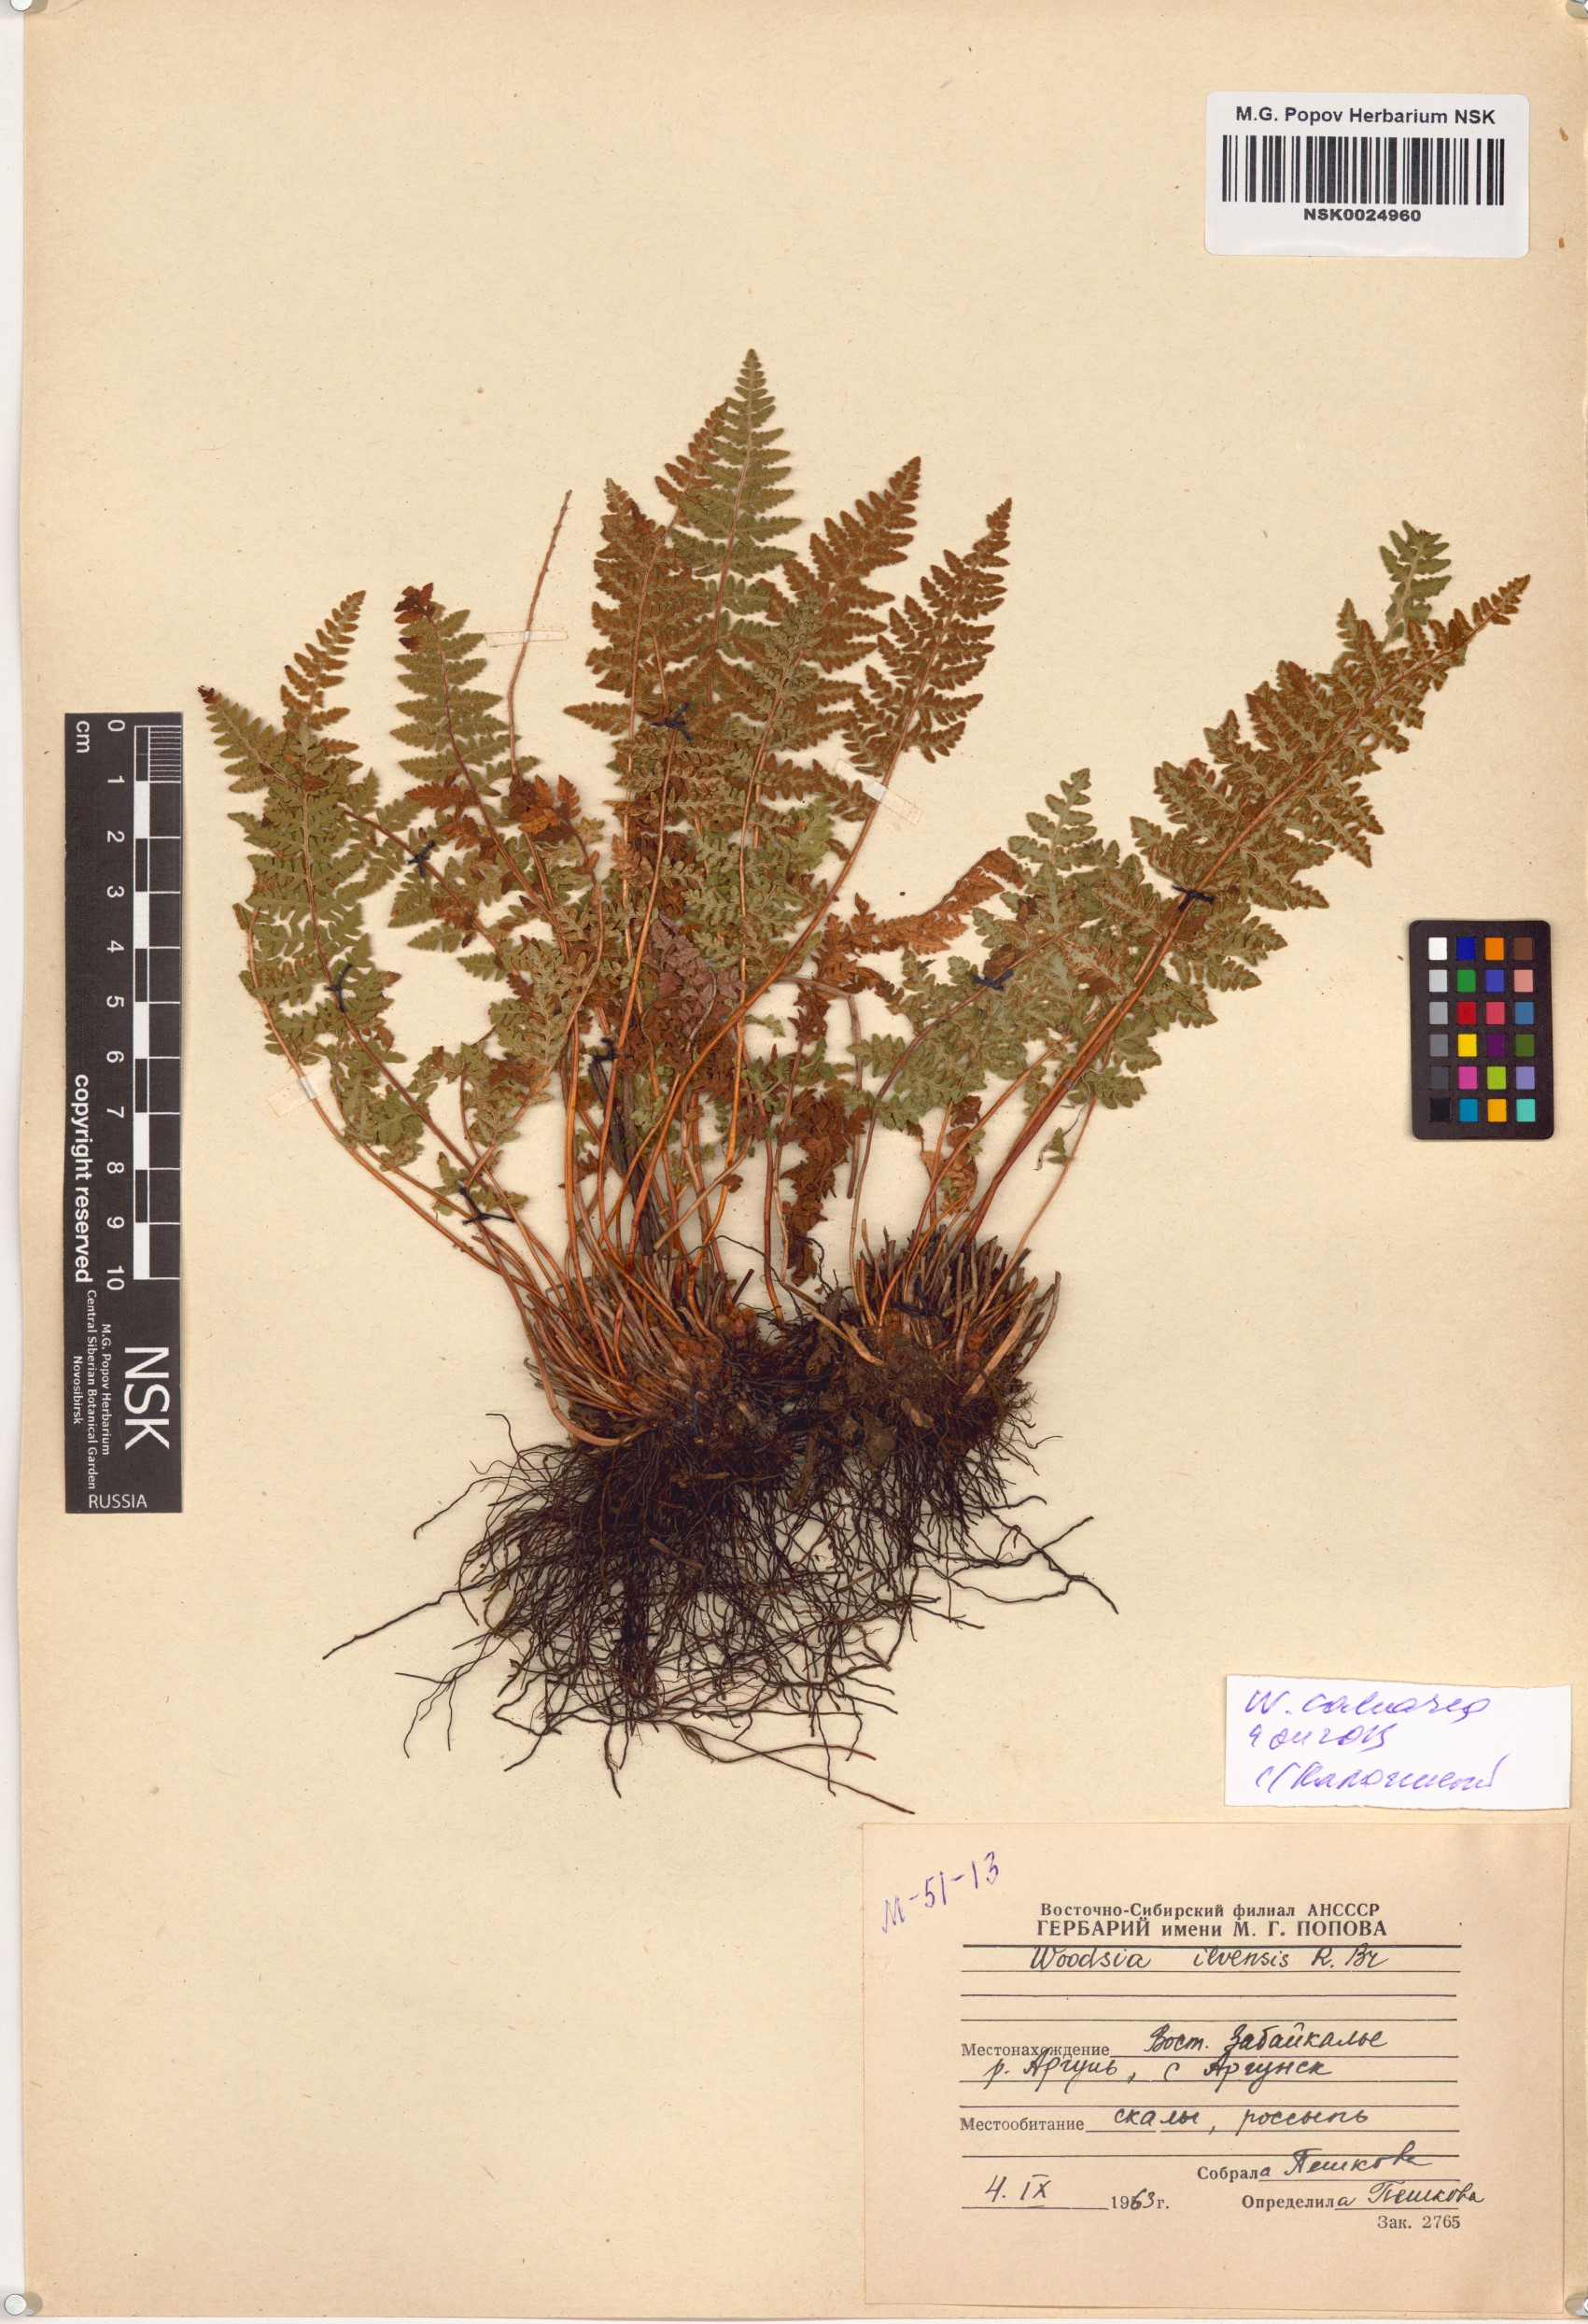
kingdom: Plantae
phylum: Tracheophyta
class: Polypodiopsida
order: Polypodiales
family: Woodsiaceae
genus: Woodsia
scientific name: Woodsia calcarea
